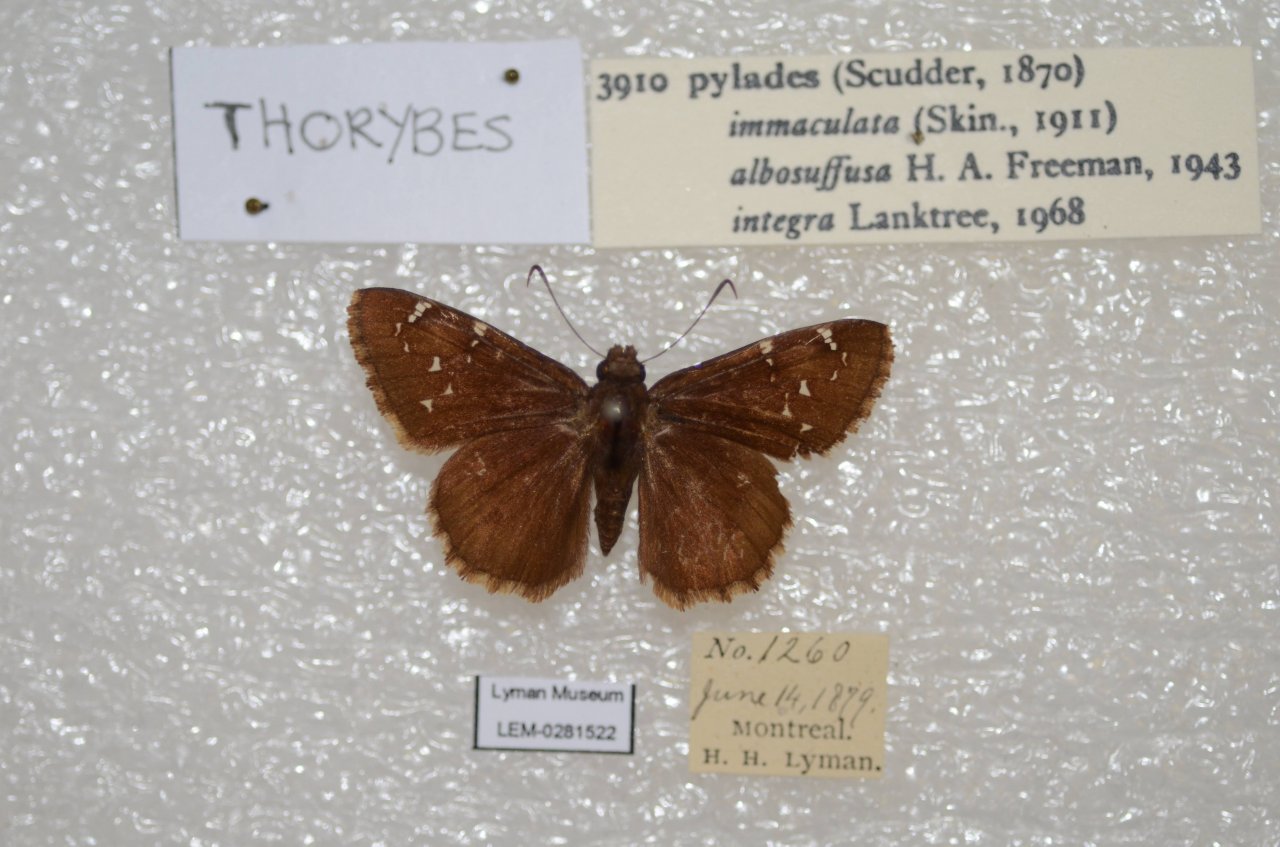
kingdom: Animalia
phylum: Arthropoda
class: Insecta
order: Lepidoptera
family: Hesperiidae
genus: Autochton
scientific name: Autochton
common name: Northern Cloudywing
